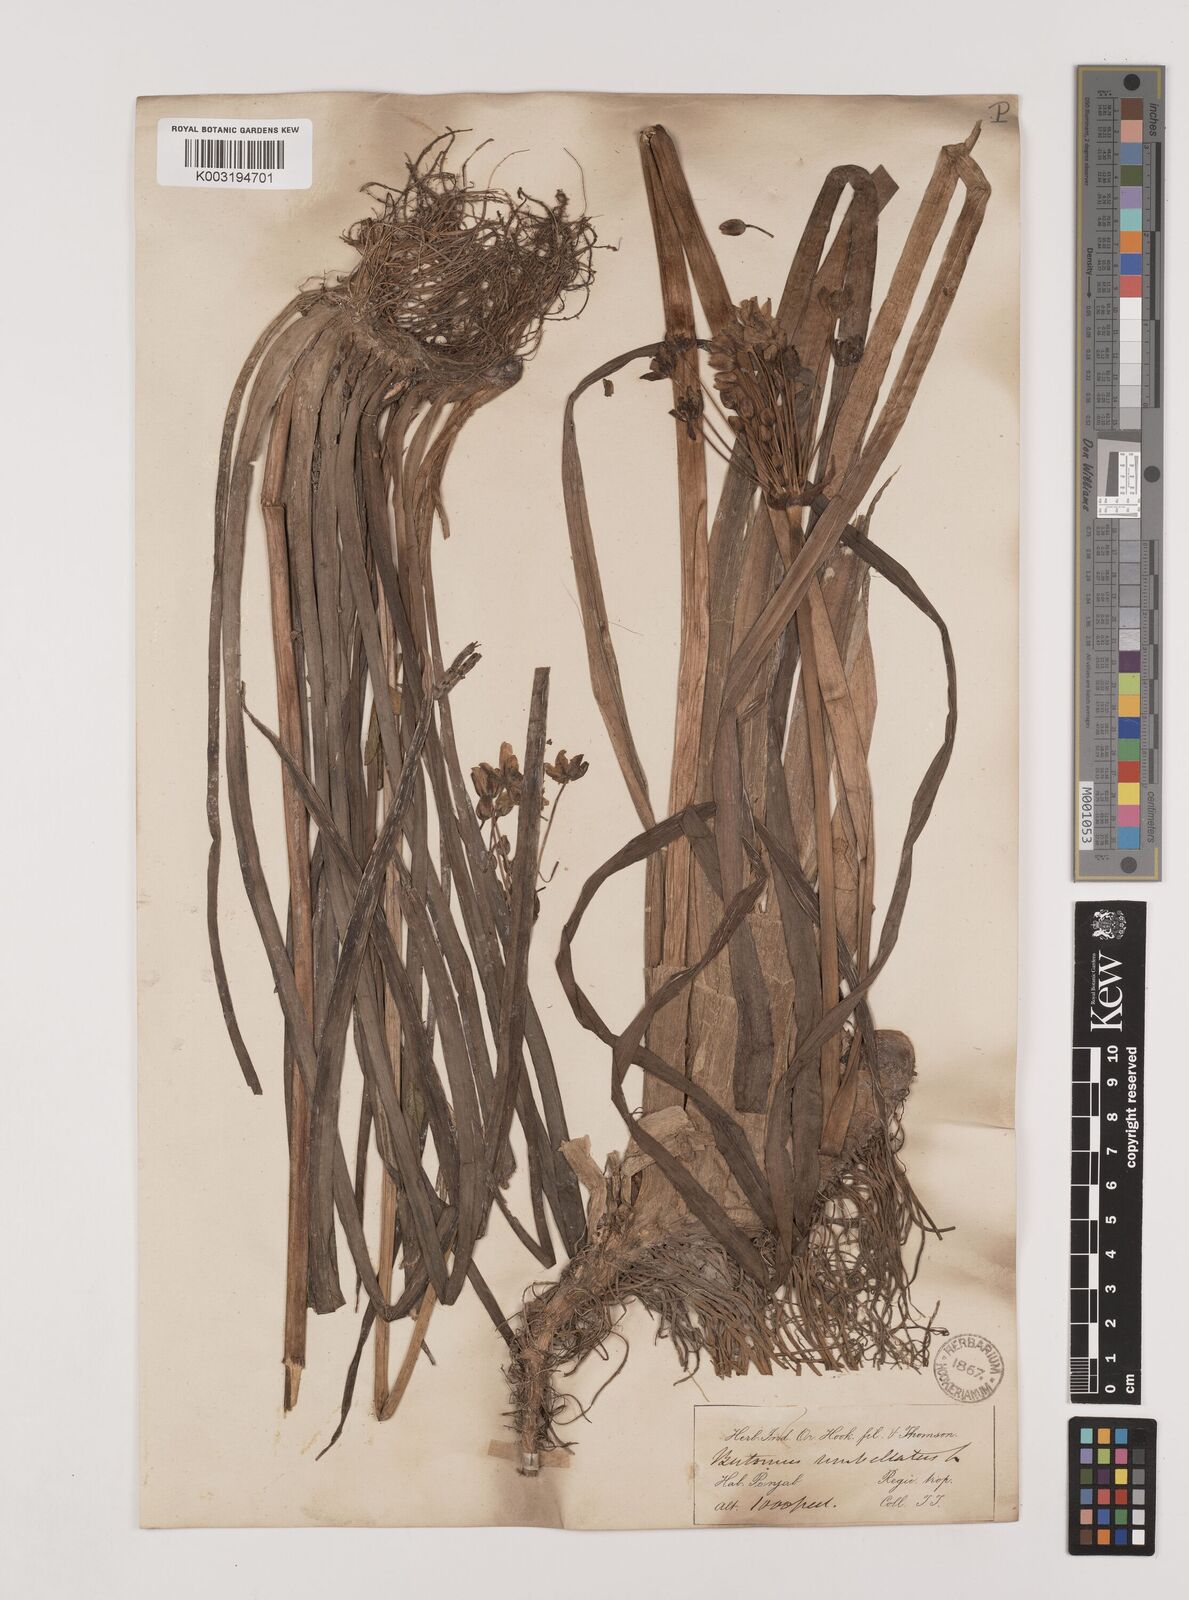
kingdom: Plantae
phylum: Tracheophyta
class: Liliopsida
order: Alismatales
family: Butomaceae
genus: Butomus
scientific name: Butomus umbellatus
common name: Flowering-rush
